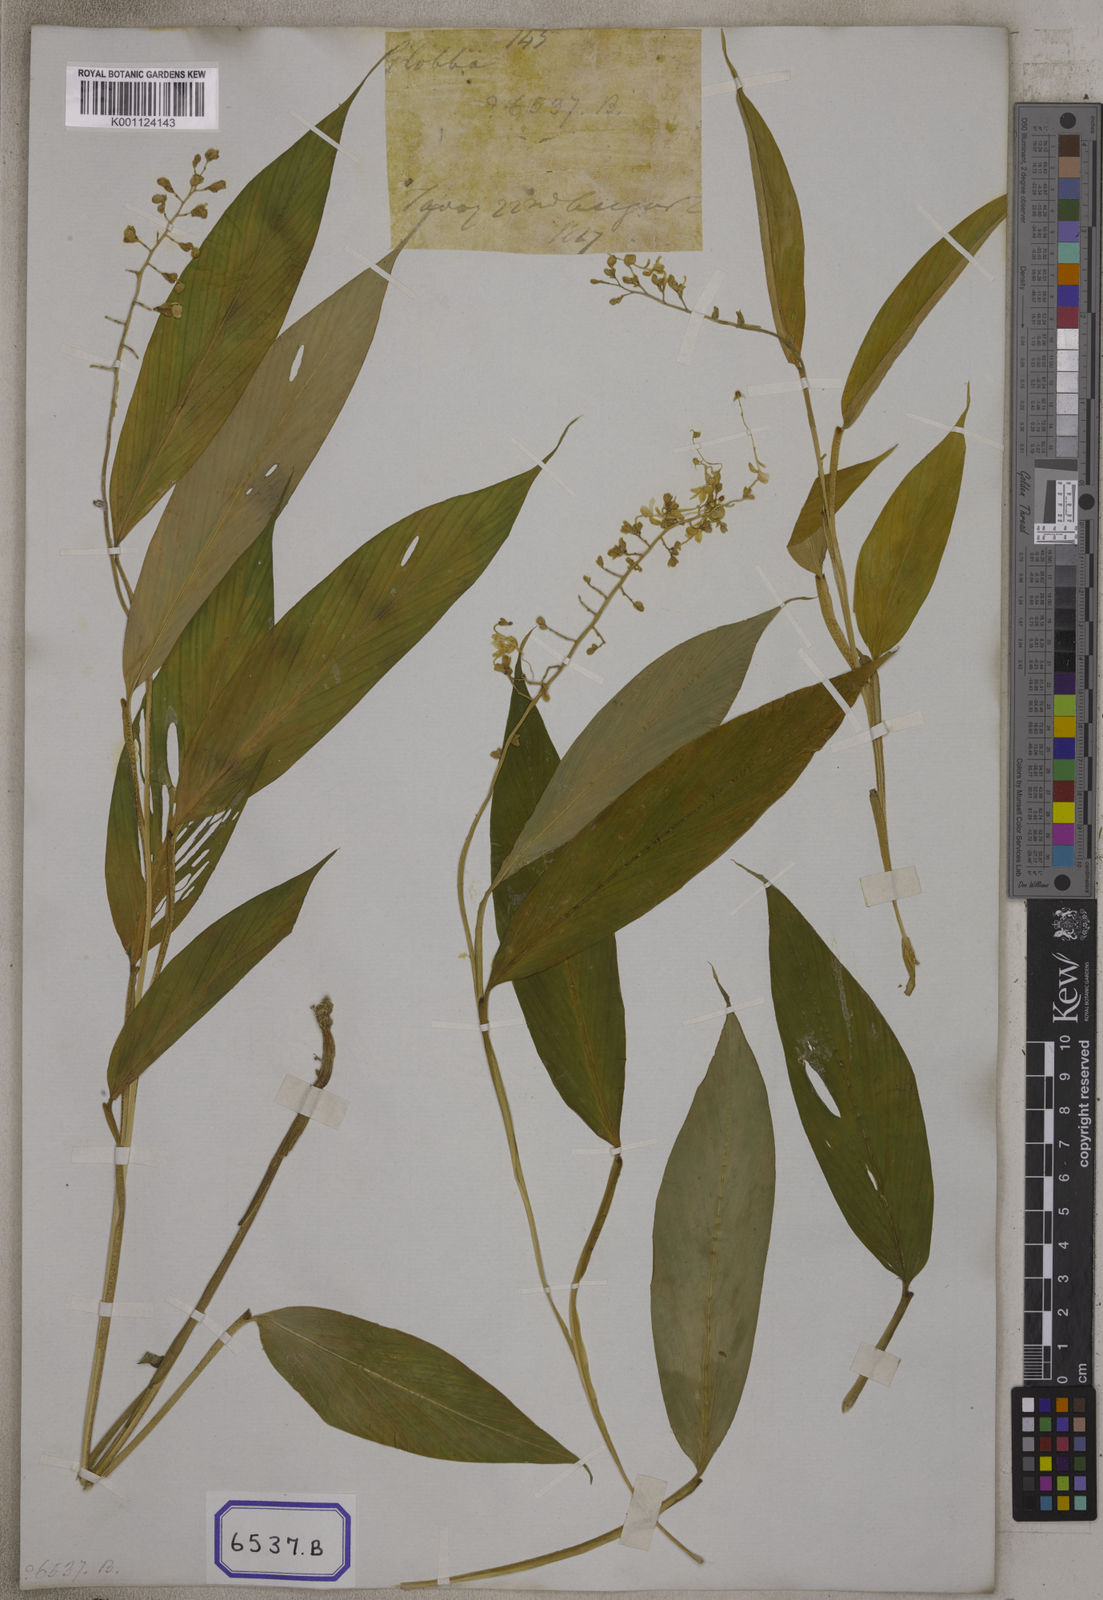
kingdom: Plantae
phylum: Tracheophyta
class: Liliopsida
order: Zingiberales
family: Zingiberaceae
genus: Globba
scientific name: Globba
